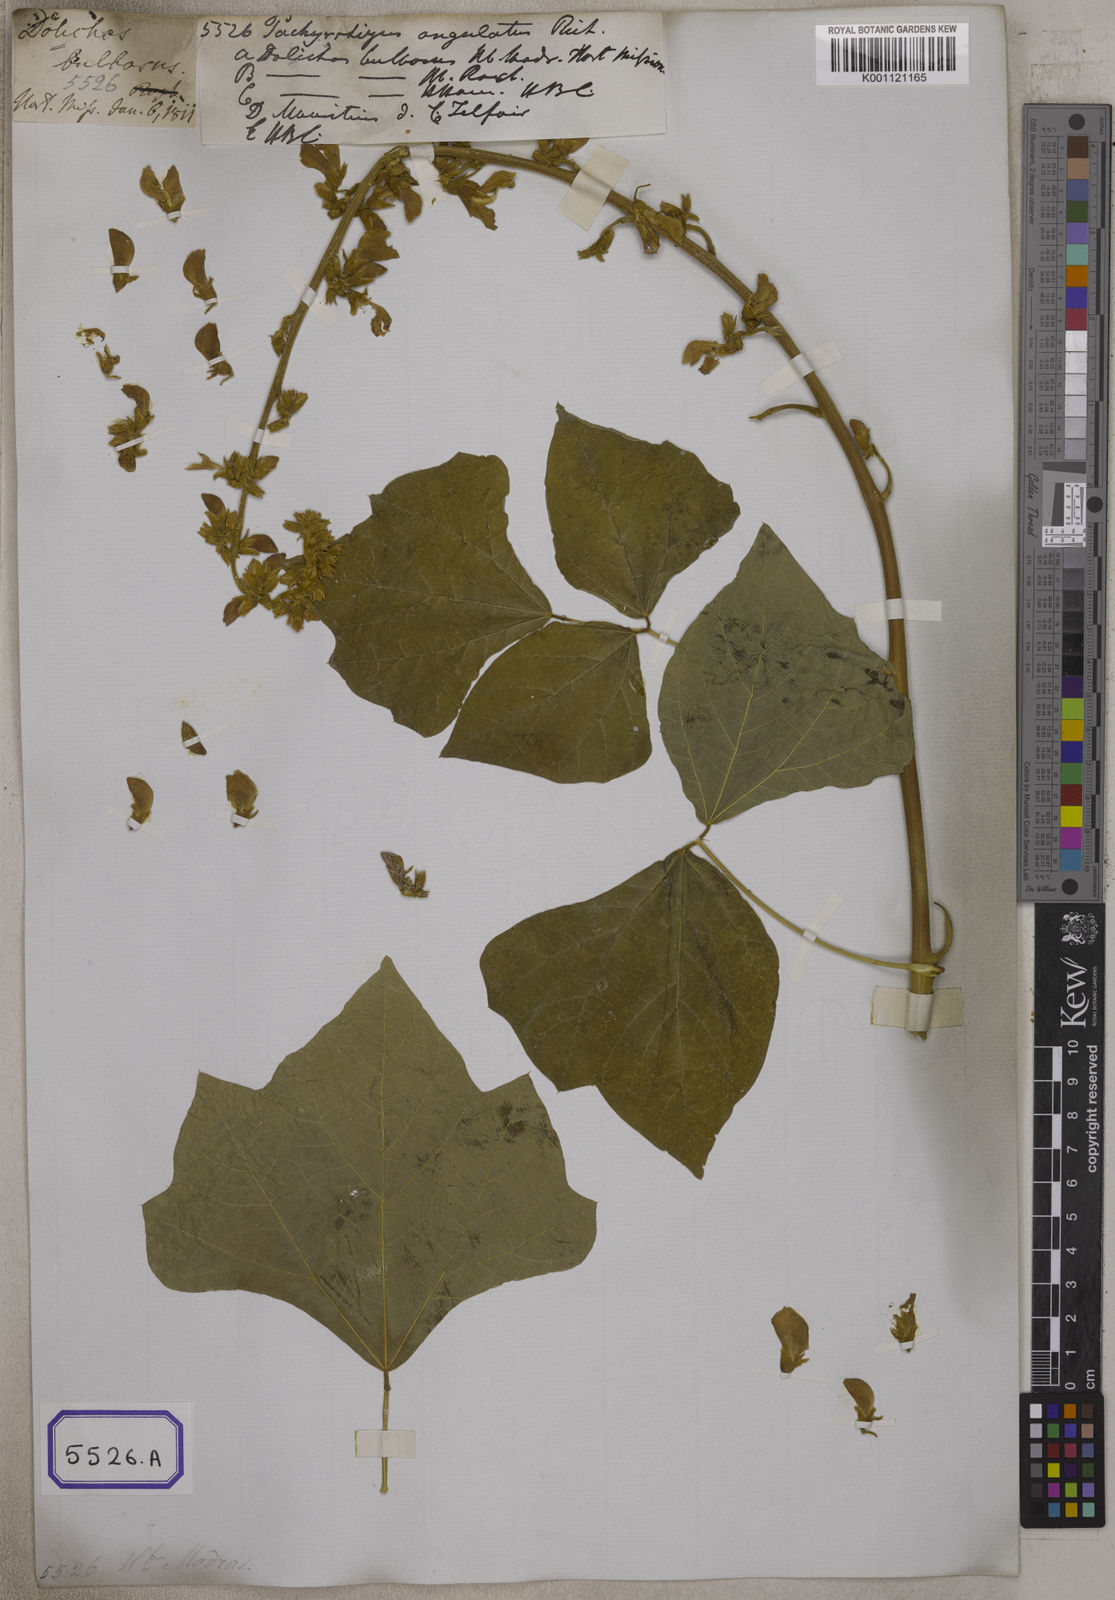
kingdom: Plantae
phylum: Tracheophyta
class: Magnoliopsida
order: Fabales
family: Fabaceae
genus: Pachyrhizus
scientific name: Pachyrhizus
